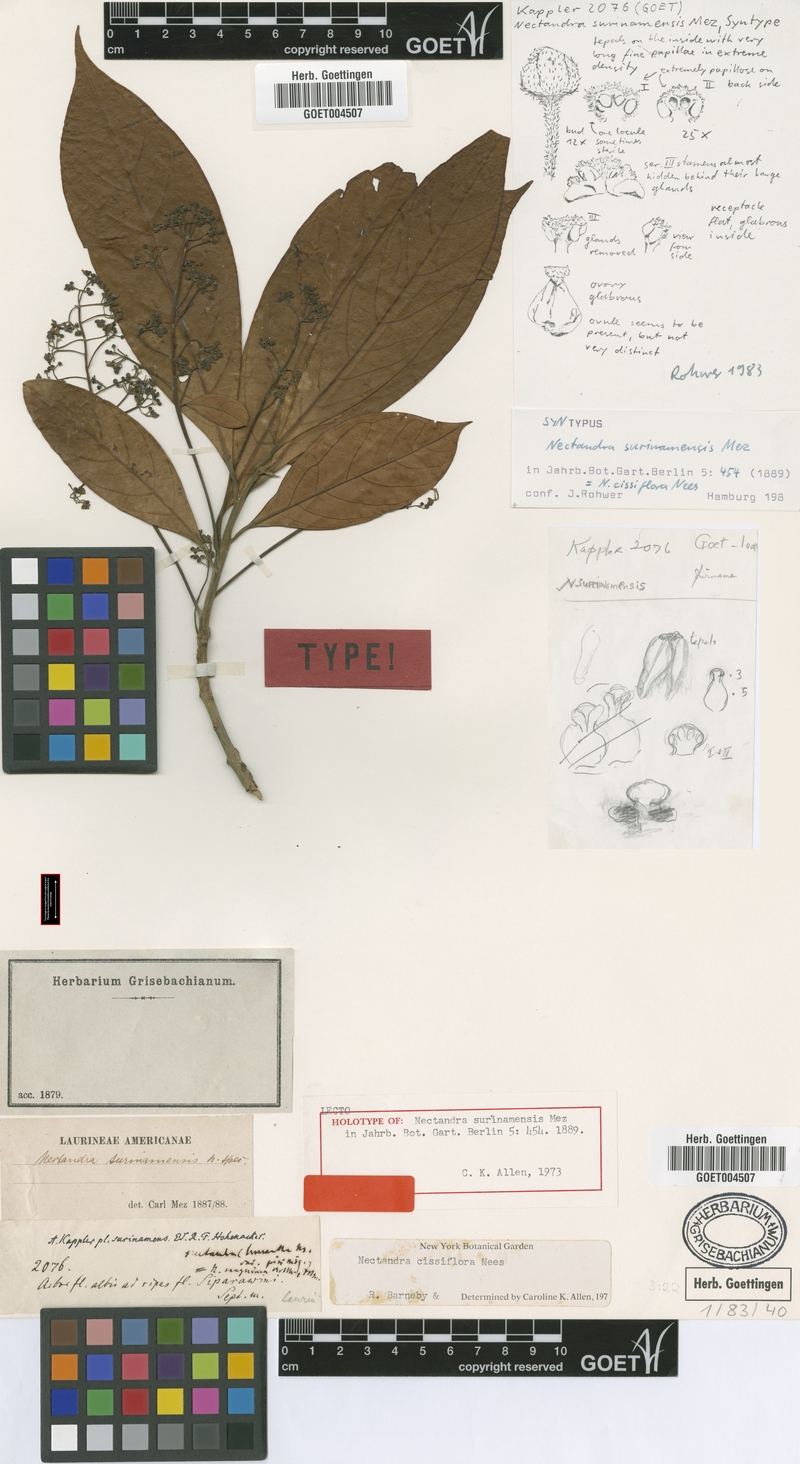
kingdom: Plantae
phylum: Tracheophyta
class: Magnoliopsida
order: Laurales
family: Lauraceae
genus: Nectandra
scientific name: Nectandra cissiflora
